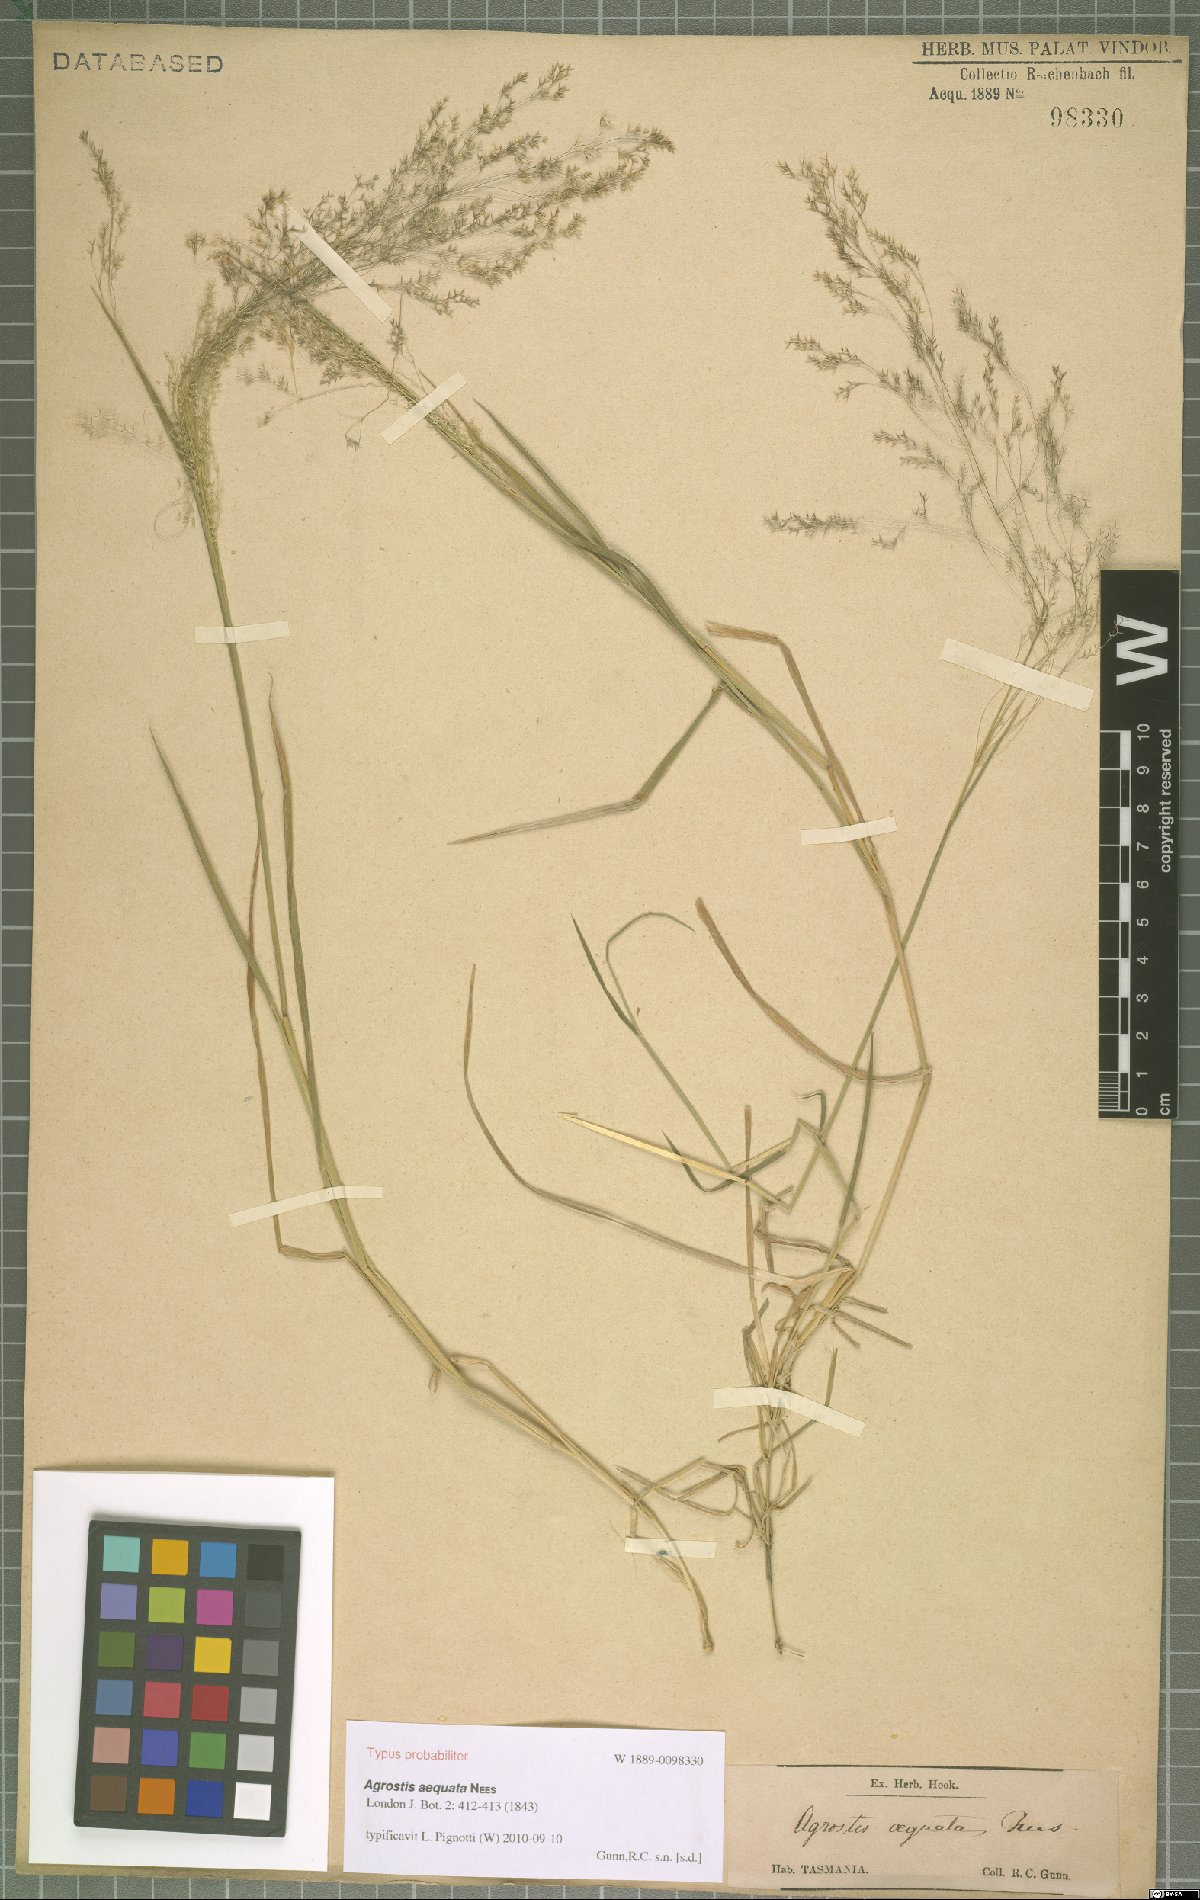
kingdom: Plantae
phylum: Tracheophyta
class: Liliopsida
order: Poales
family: Poaceae
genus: Lachnagrostis
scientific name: Lachnagrostis rudis
